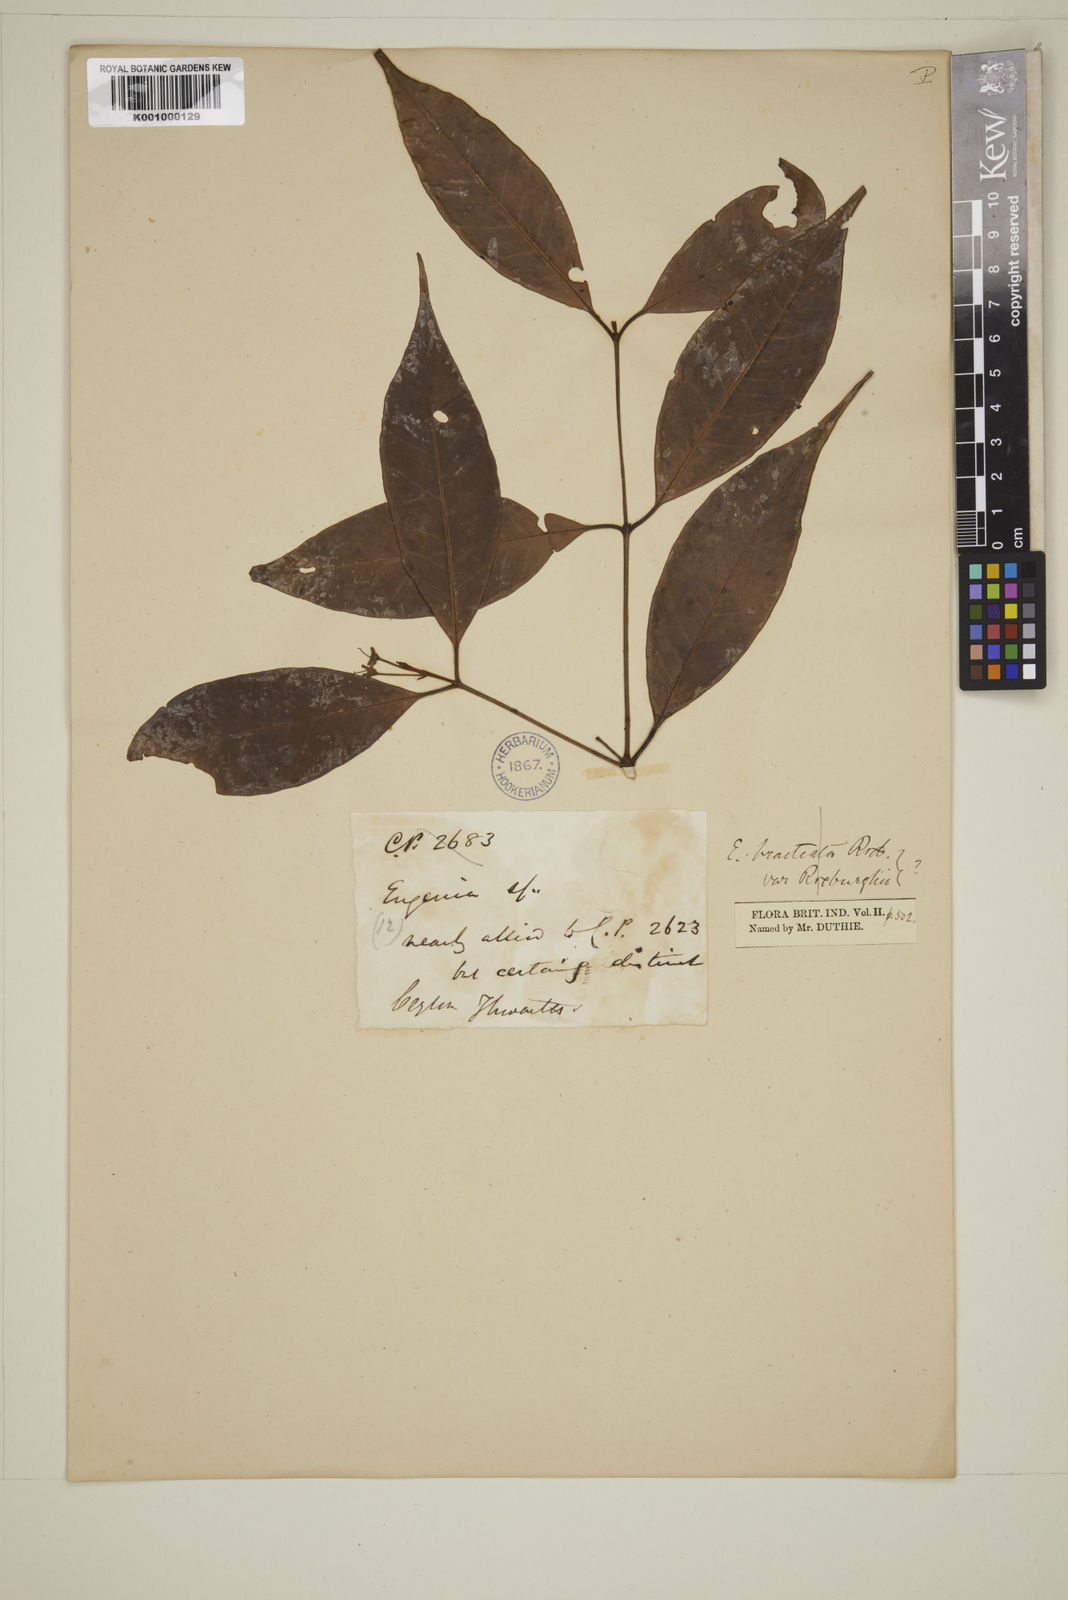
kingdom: Plantae
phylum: Tracheophyta
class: Magnoliopsida
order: Myrtales
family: Myrtaceae
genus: Eugenia
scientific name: Eugenia
